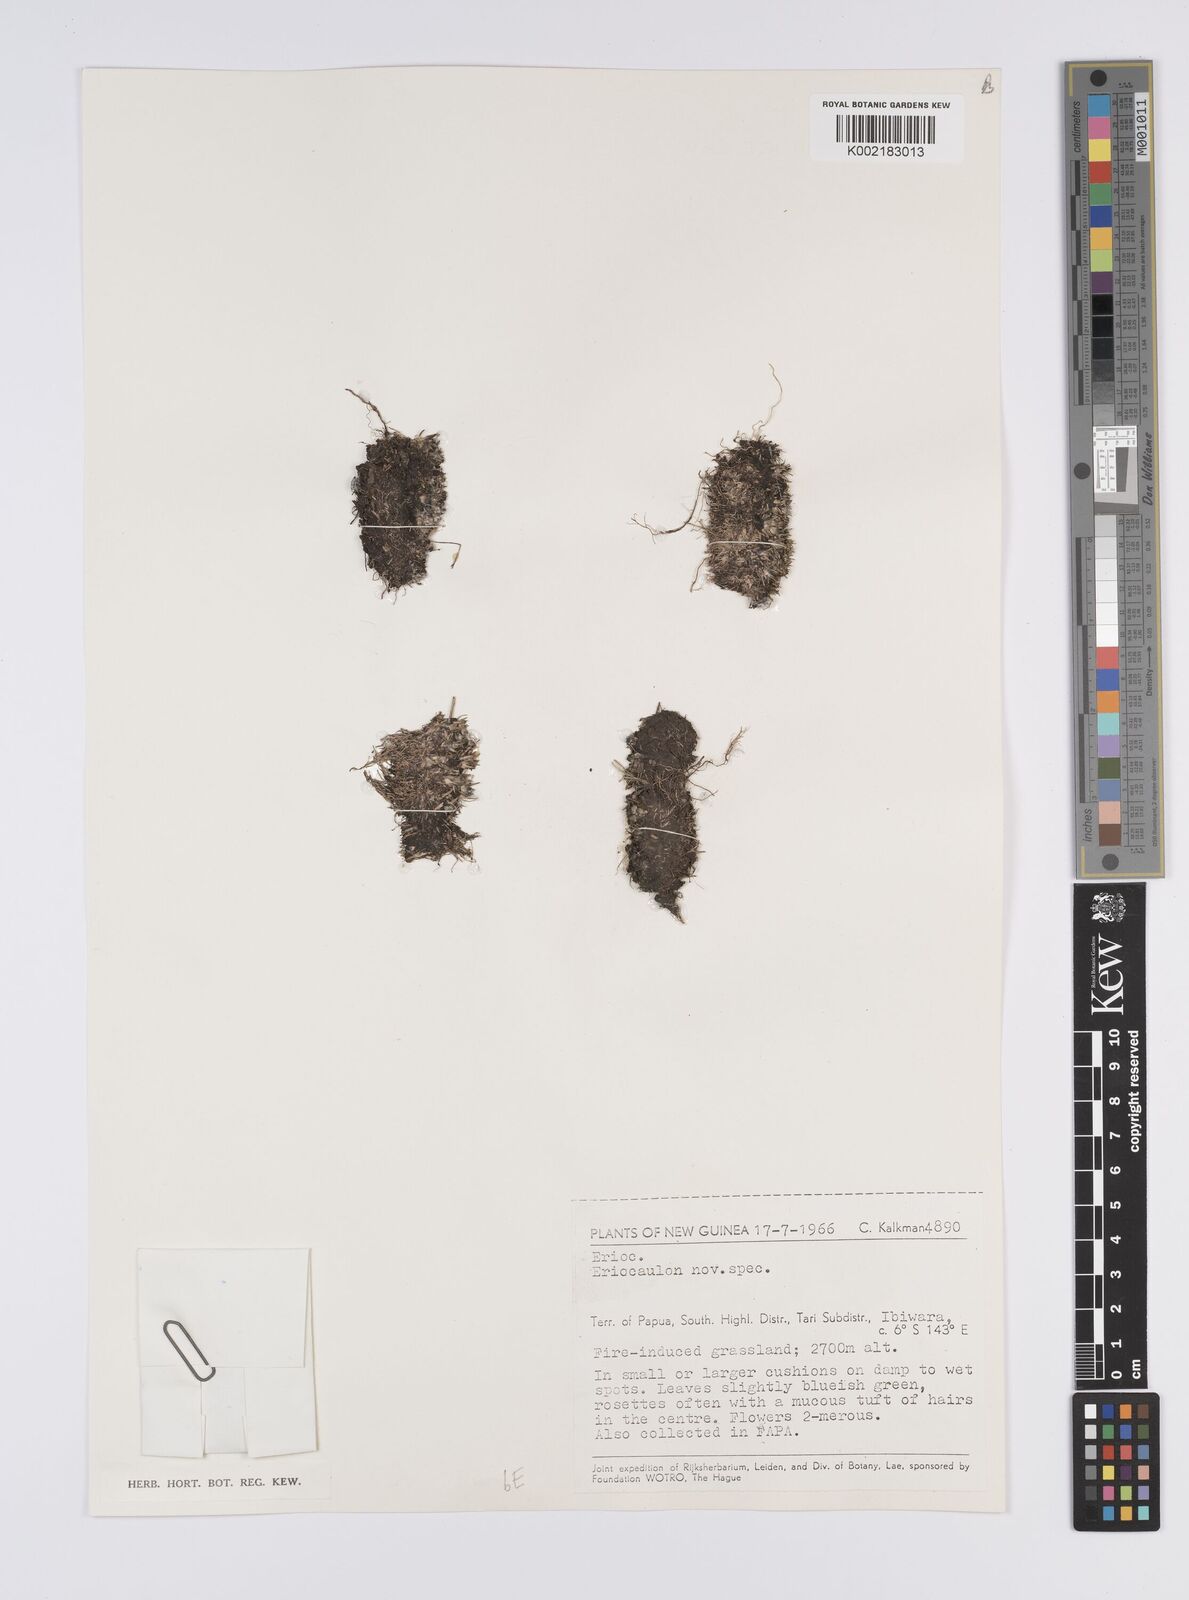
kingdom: Plantae
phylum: Tracheophyta
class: Liliopsida
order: Poales
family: Eriocaulaceae
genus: Eriocaulon
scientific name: Eriocaulon
